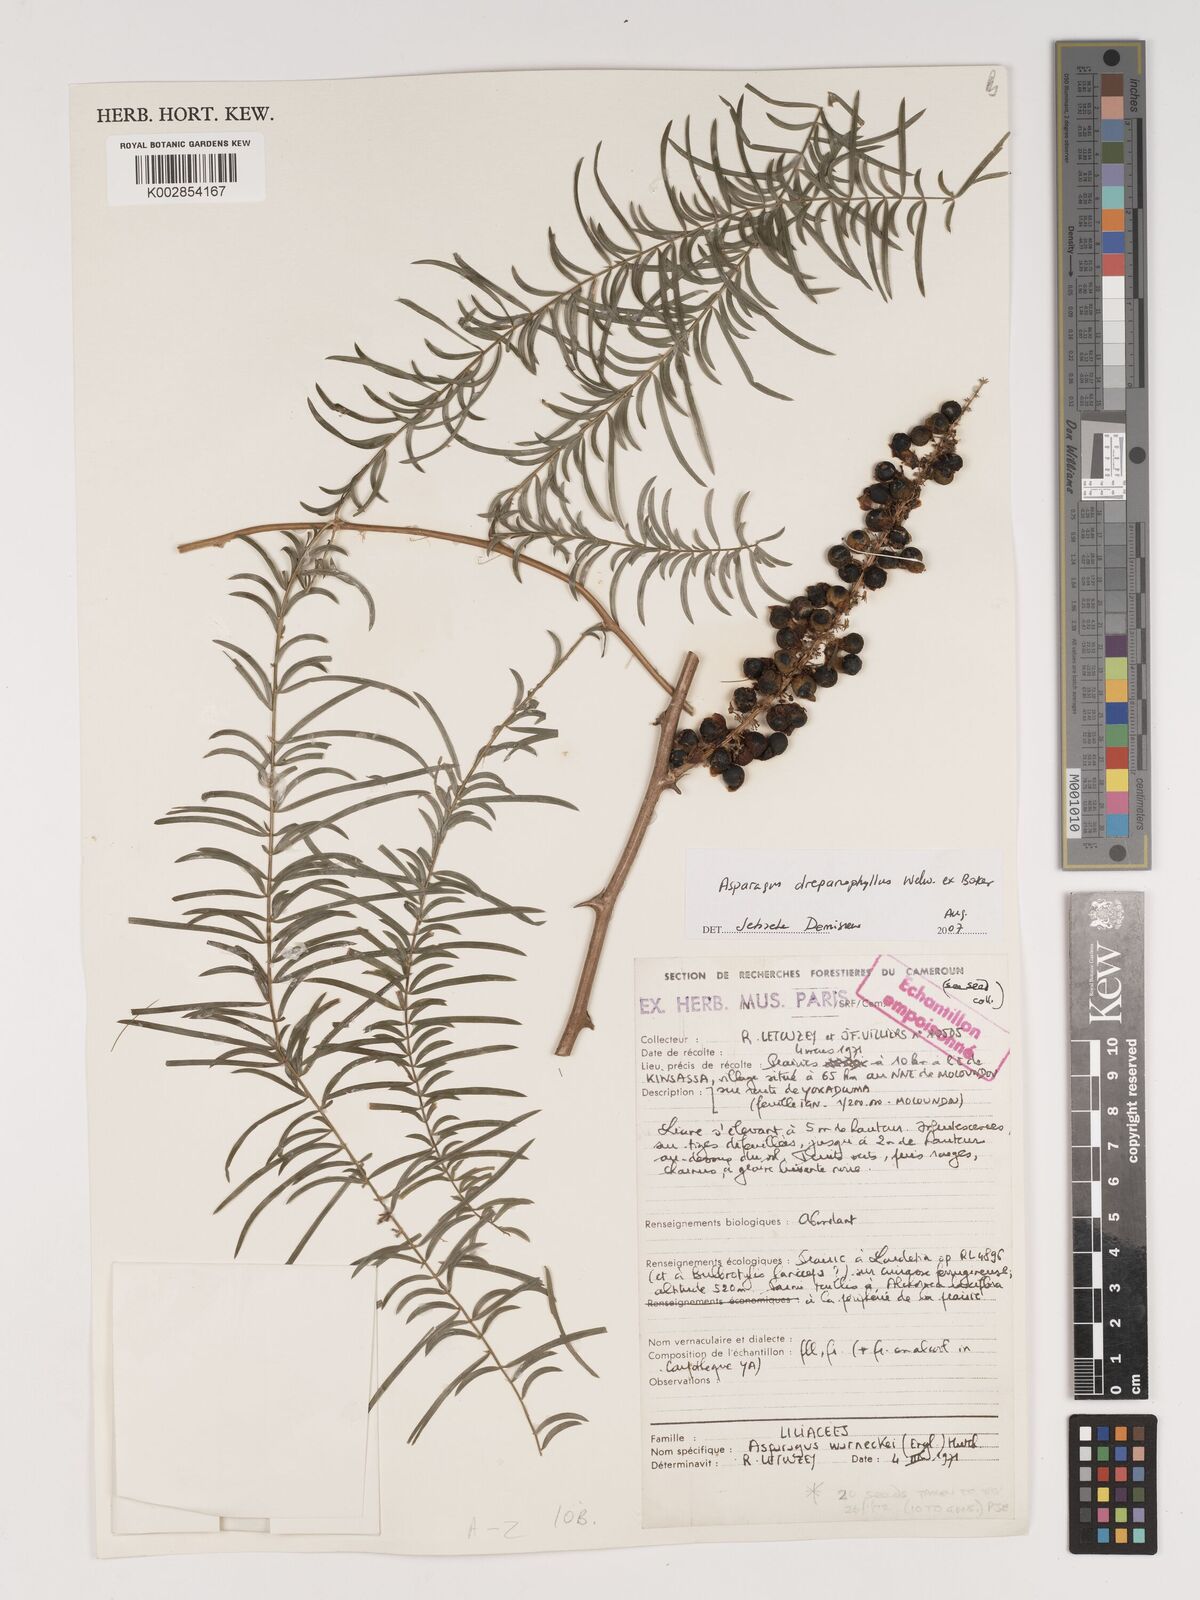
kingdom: Plantae
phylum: Tracheophyta
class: Liliopsida
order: Asparagales
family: Asparagaceae
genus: Asparagus
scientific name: Asparagus drepanophyllus
